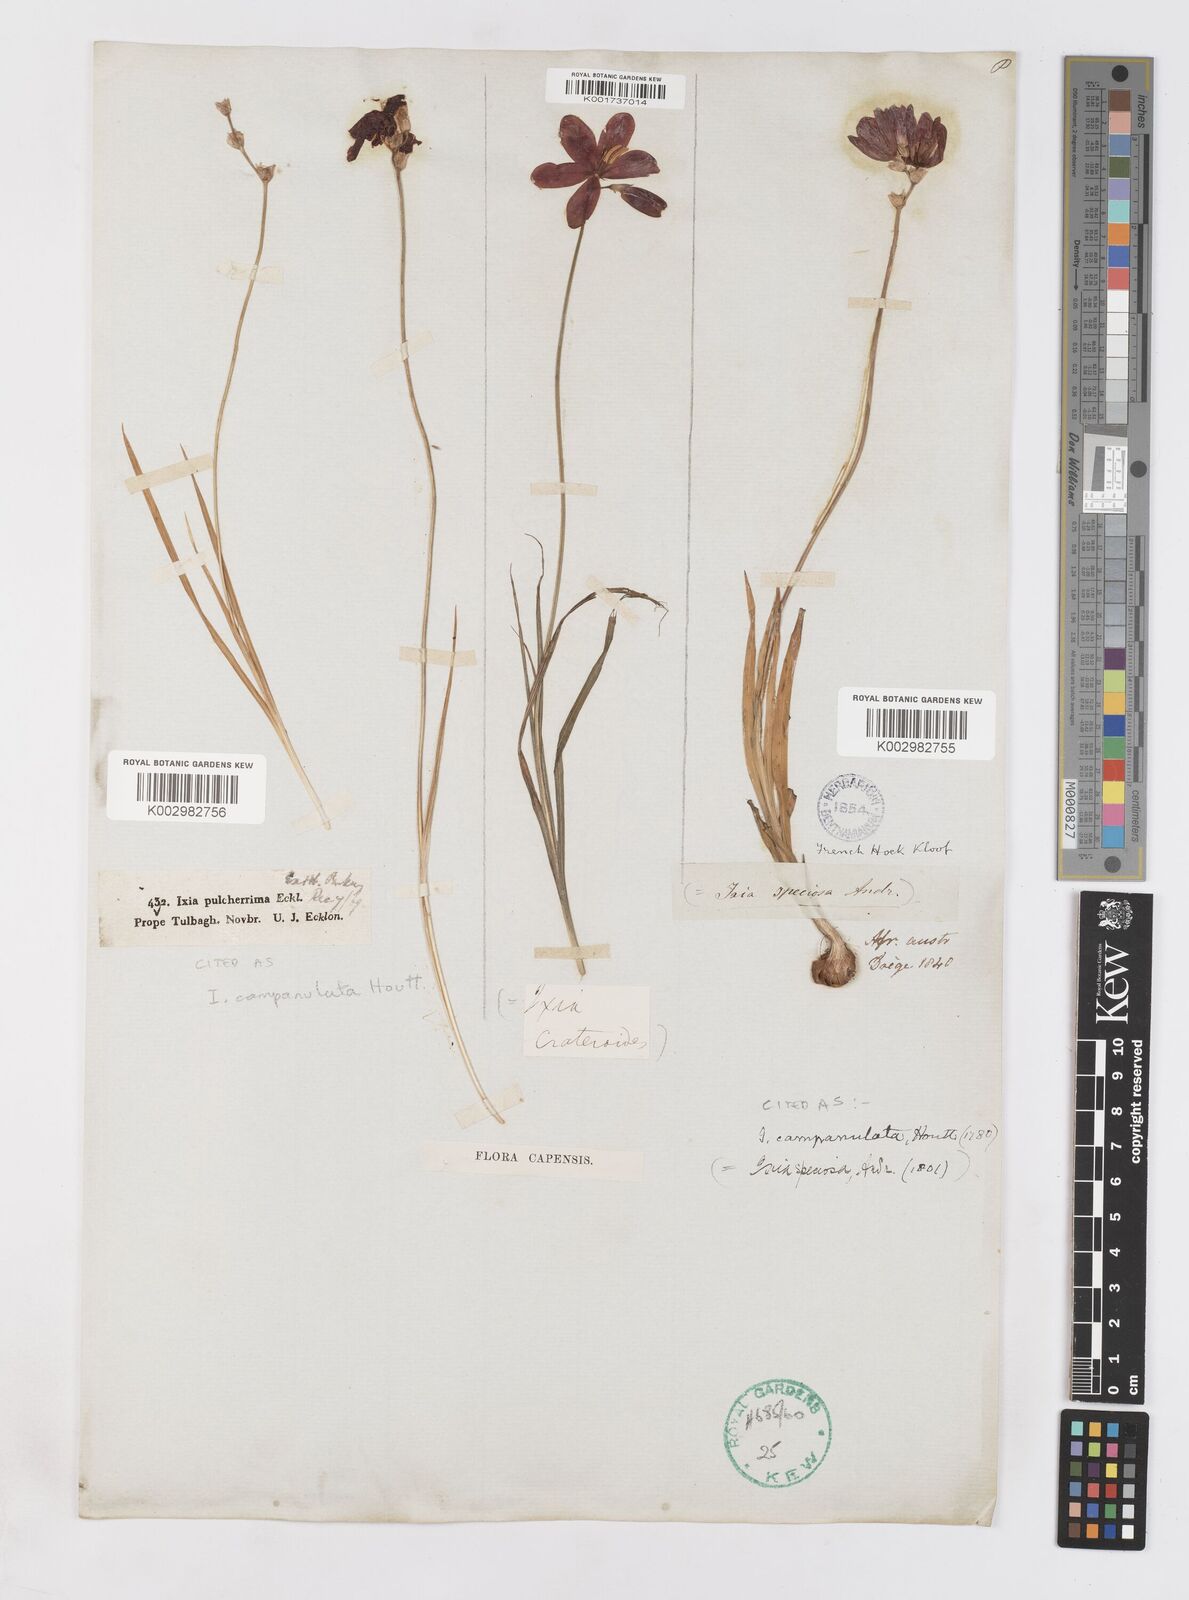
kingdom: Plantae
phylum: Tracheophyta
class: Liliopsida
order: Asparagales
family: Iridaceae
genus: Ixia
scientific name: Ixia campanulata
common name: Red corn-lily
